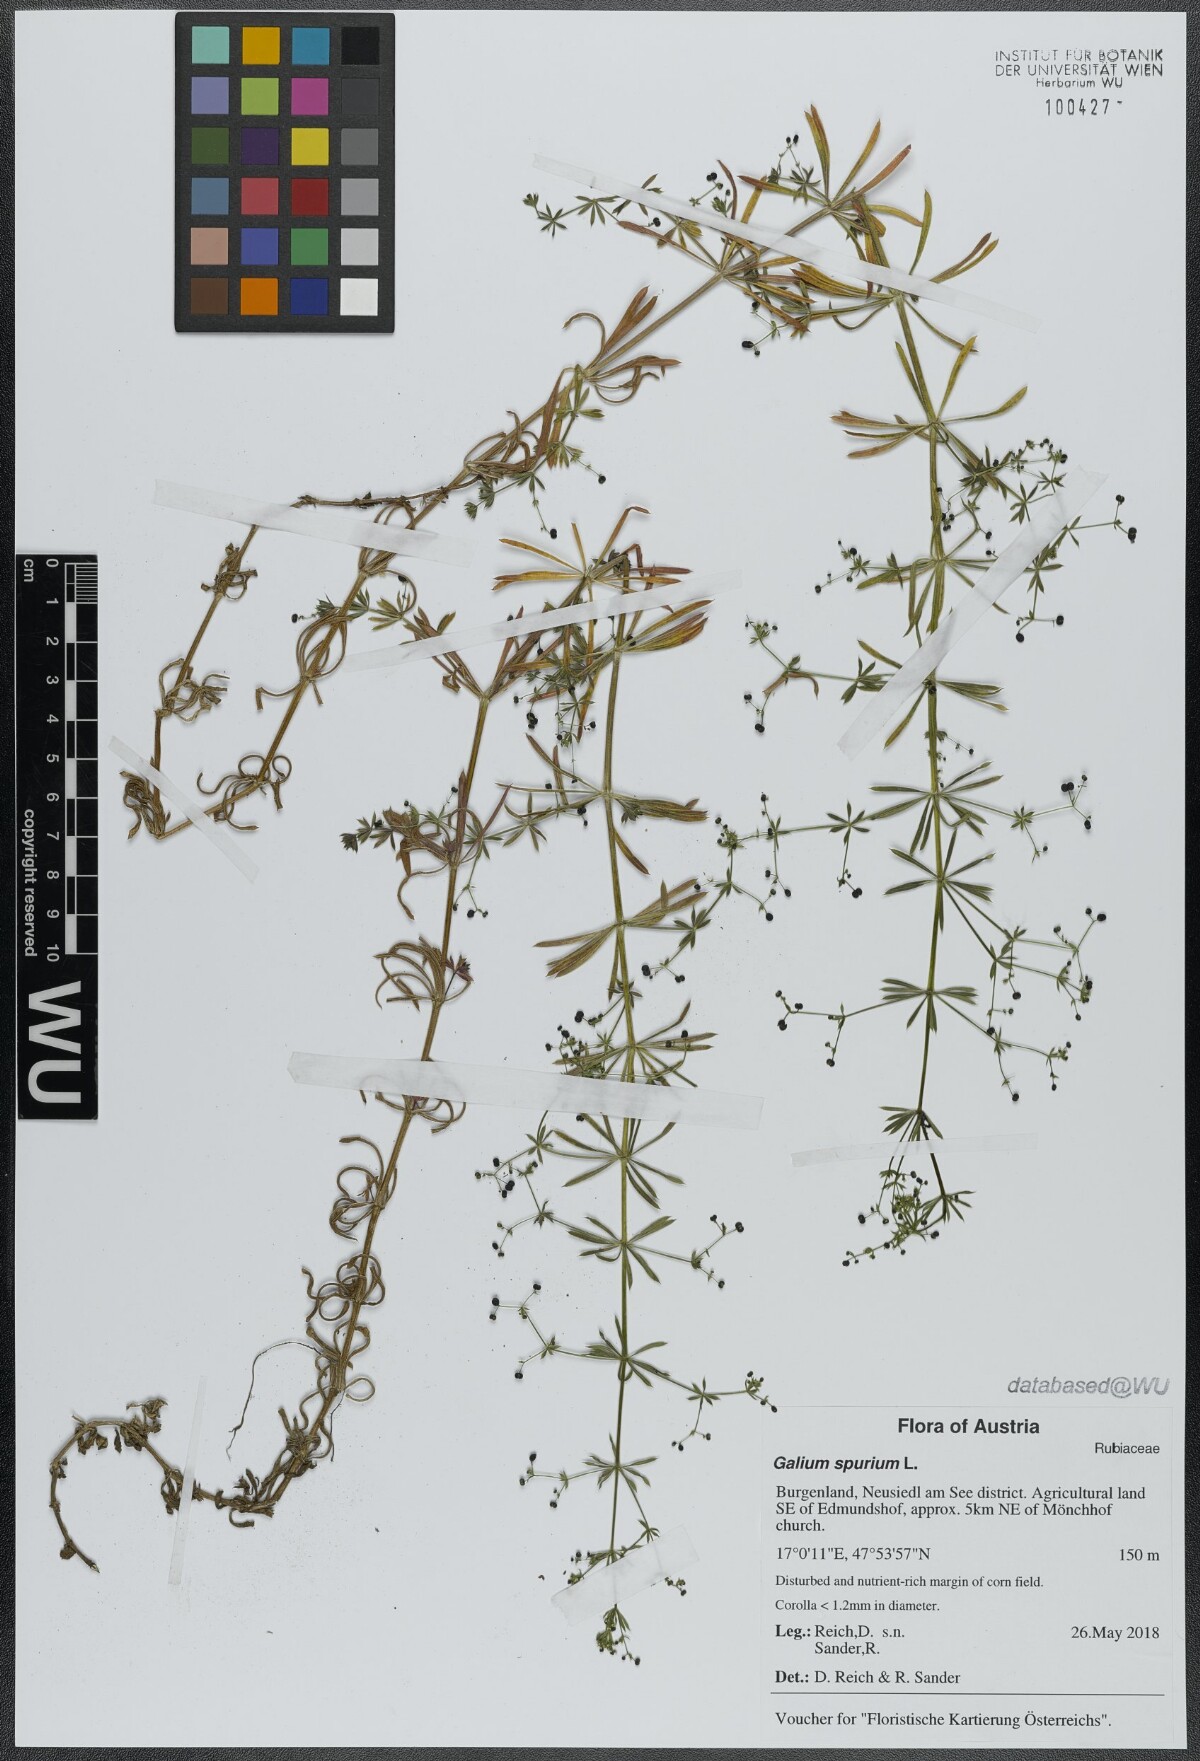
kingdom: Plantae
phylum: Tracheophyta
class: Magnoliopsida
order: Gentianales
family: Rubiaceae
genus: Galium
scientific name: Galium spurium
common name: False cleavers
